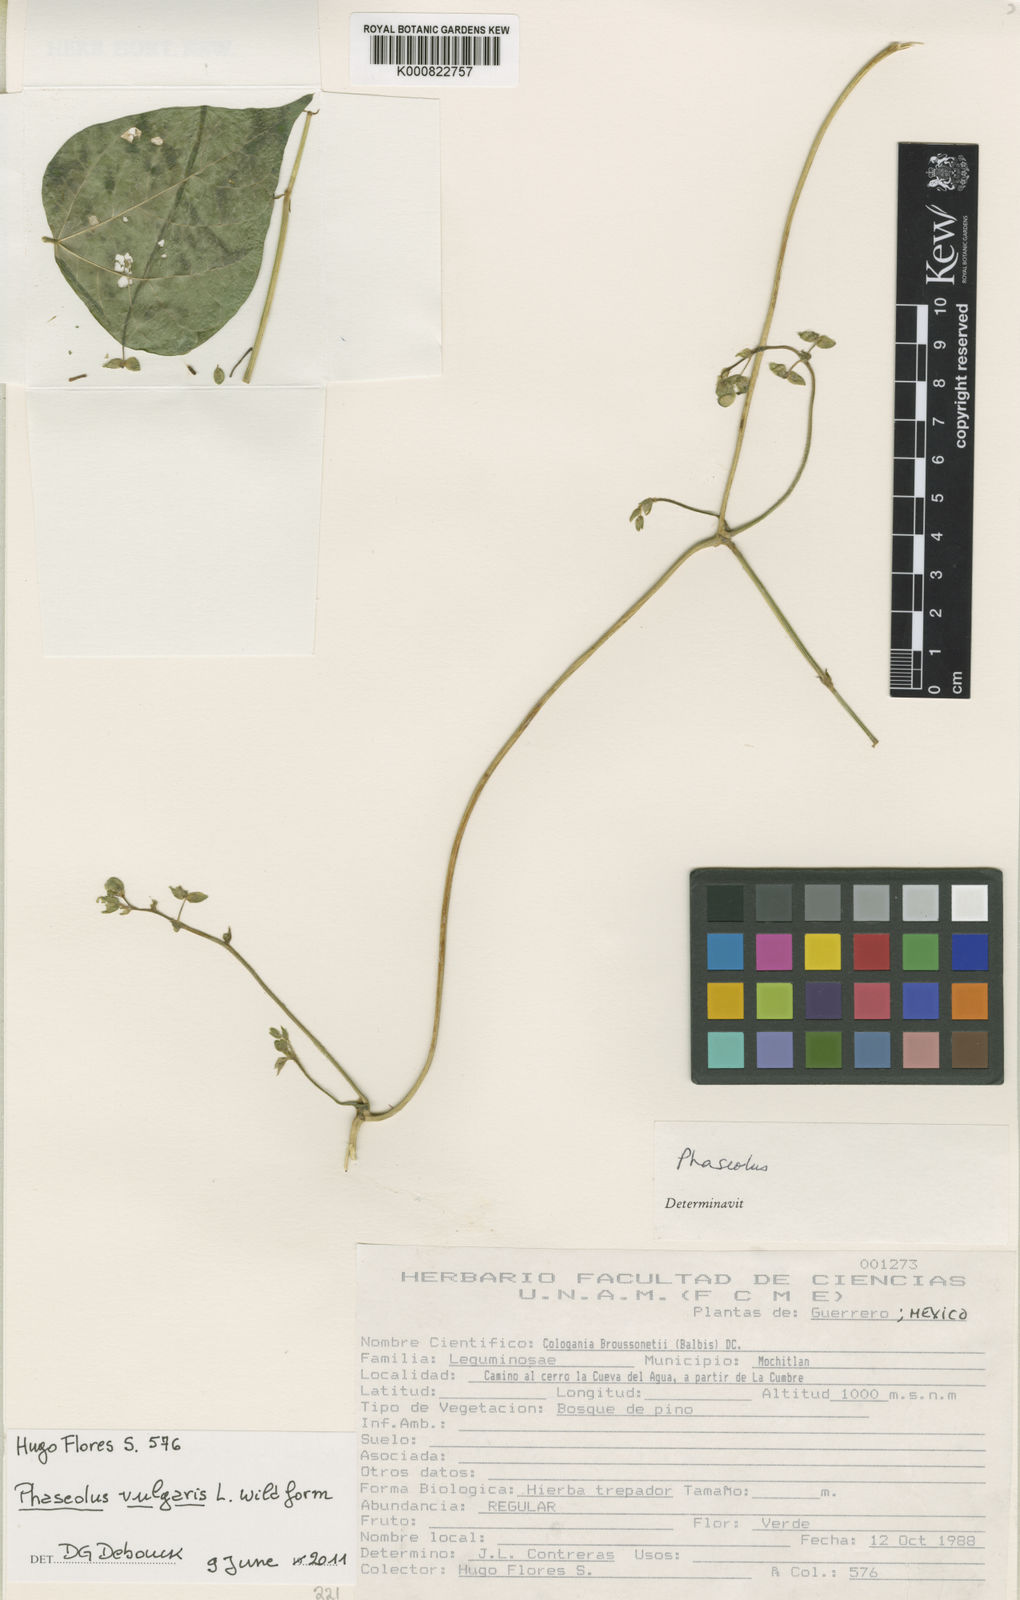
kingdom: Plantae
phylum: Tracheophyta
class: Magnoliopsida
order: Fabales
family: Fabaceae
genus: Phaseolus
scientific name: Phaseolus vulgaris
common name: Bean
